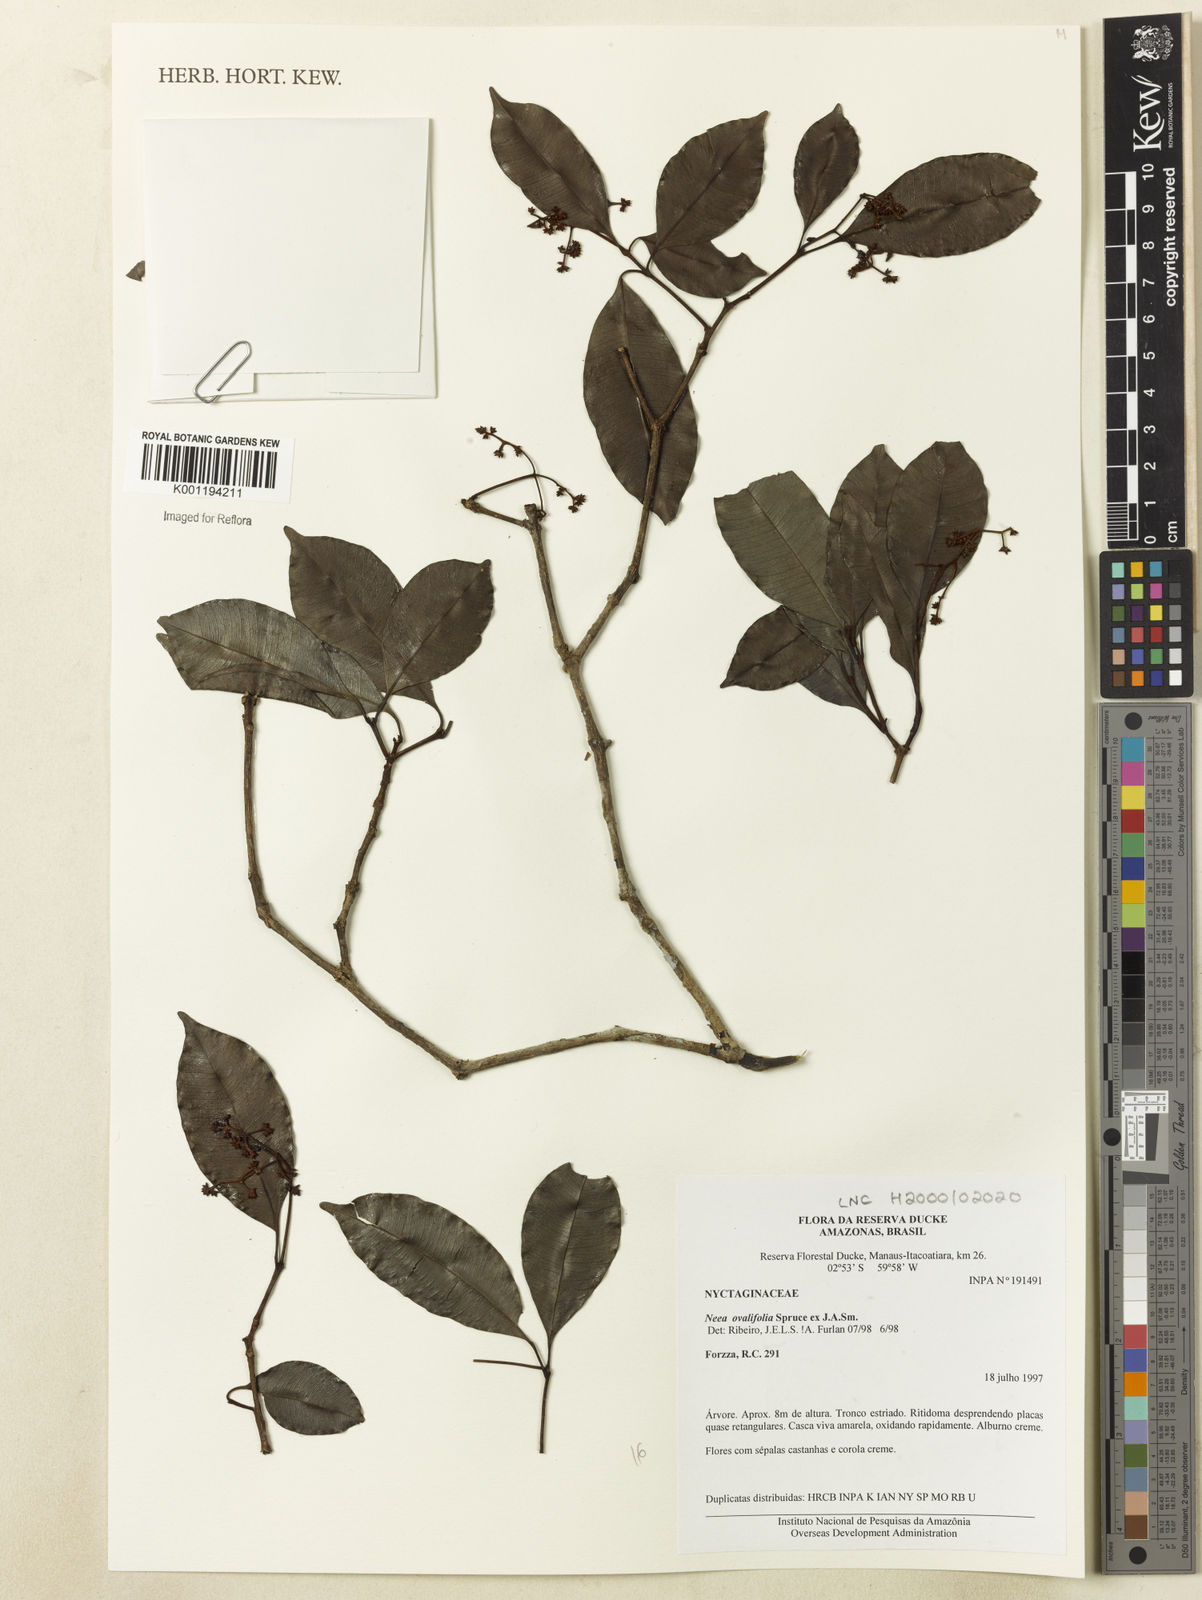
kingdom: Plantae
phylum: Tracheophyta
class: Magnoliopsida
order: Caryophyllales
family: Nyctaginaceae
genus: Neea
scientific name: Neea ovalifolia
